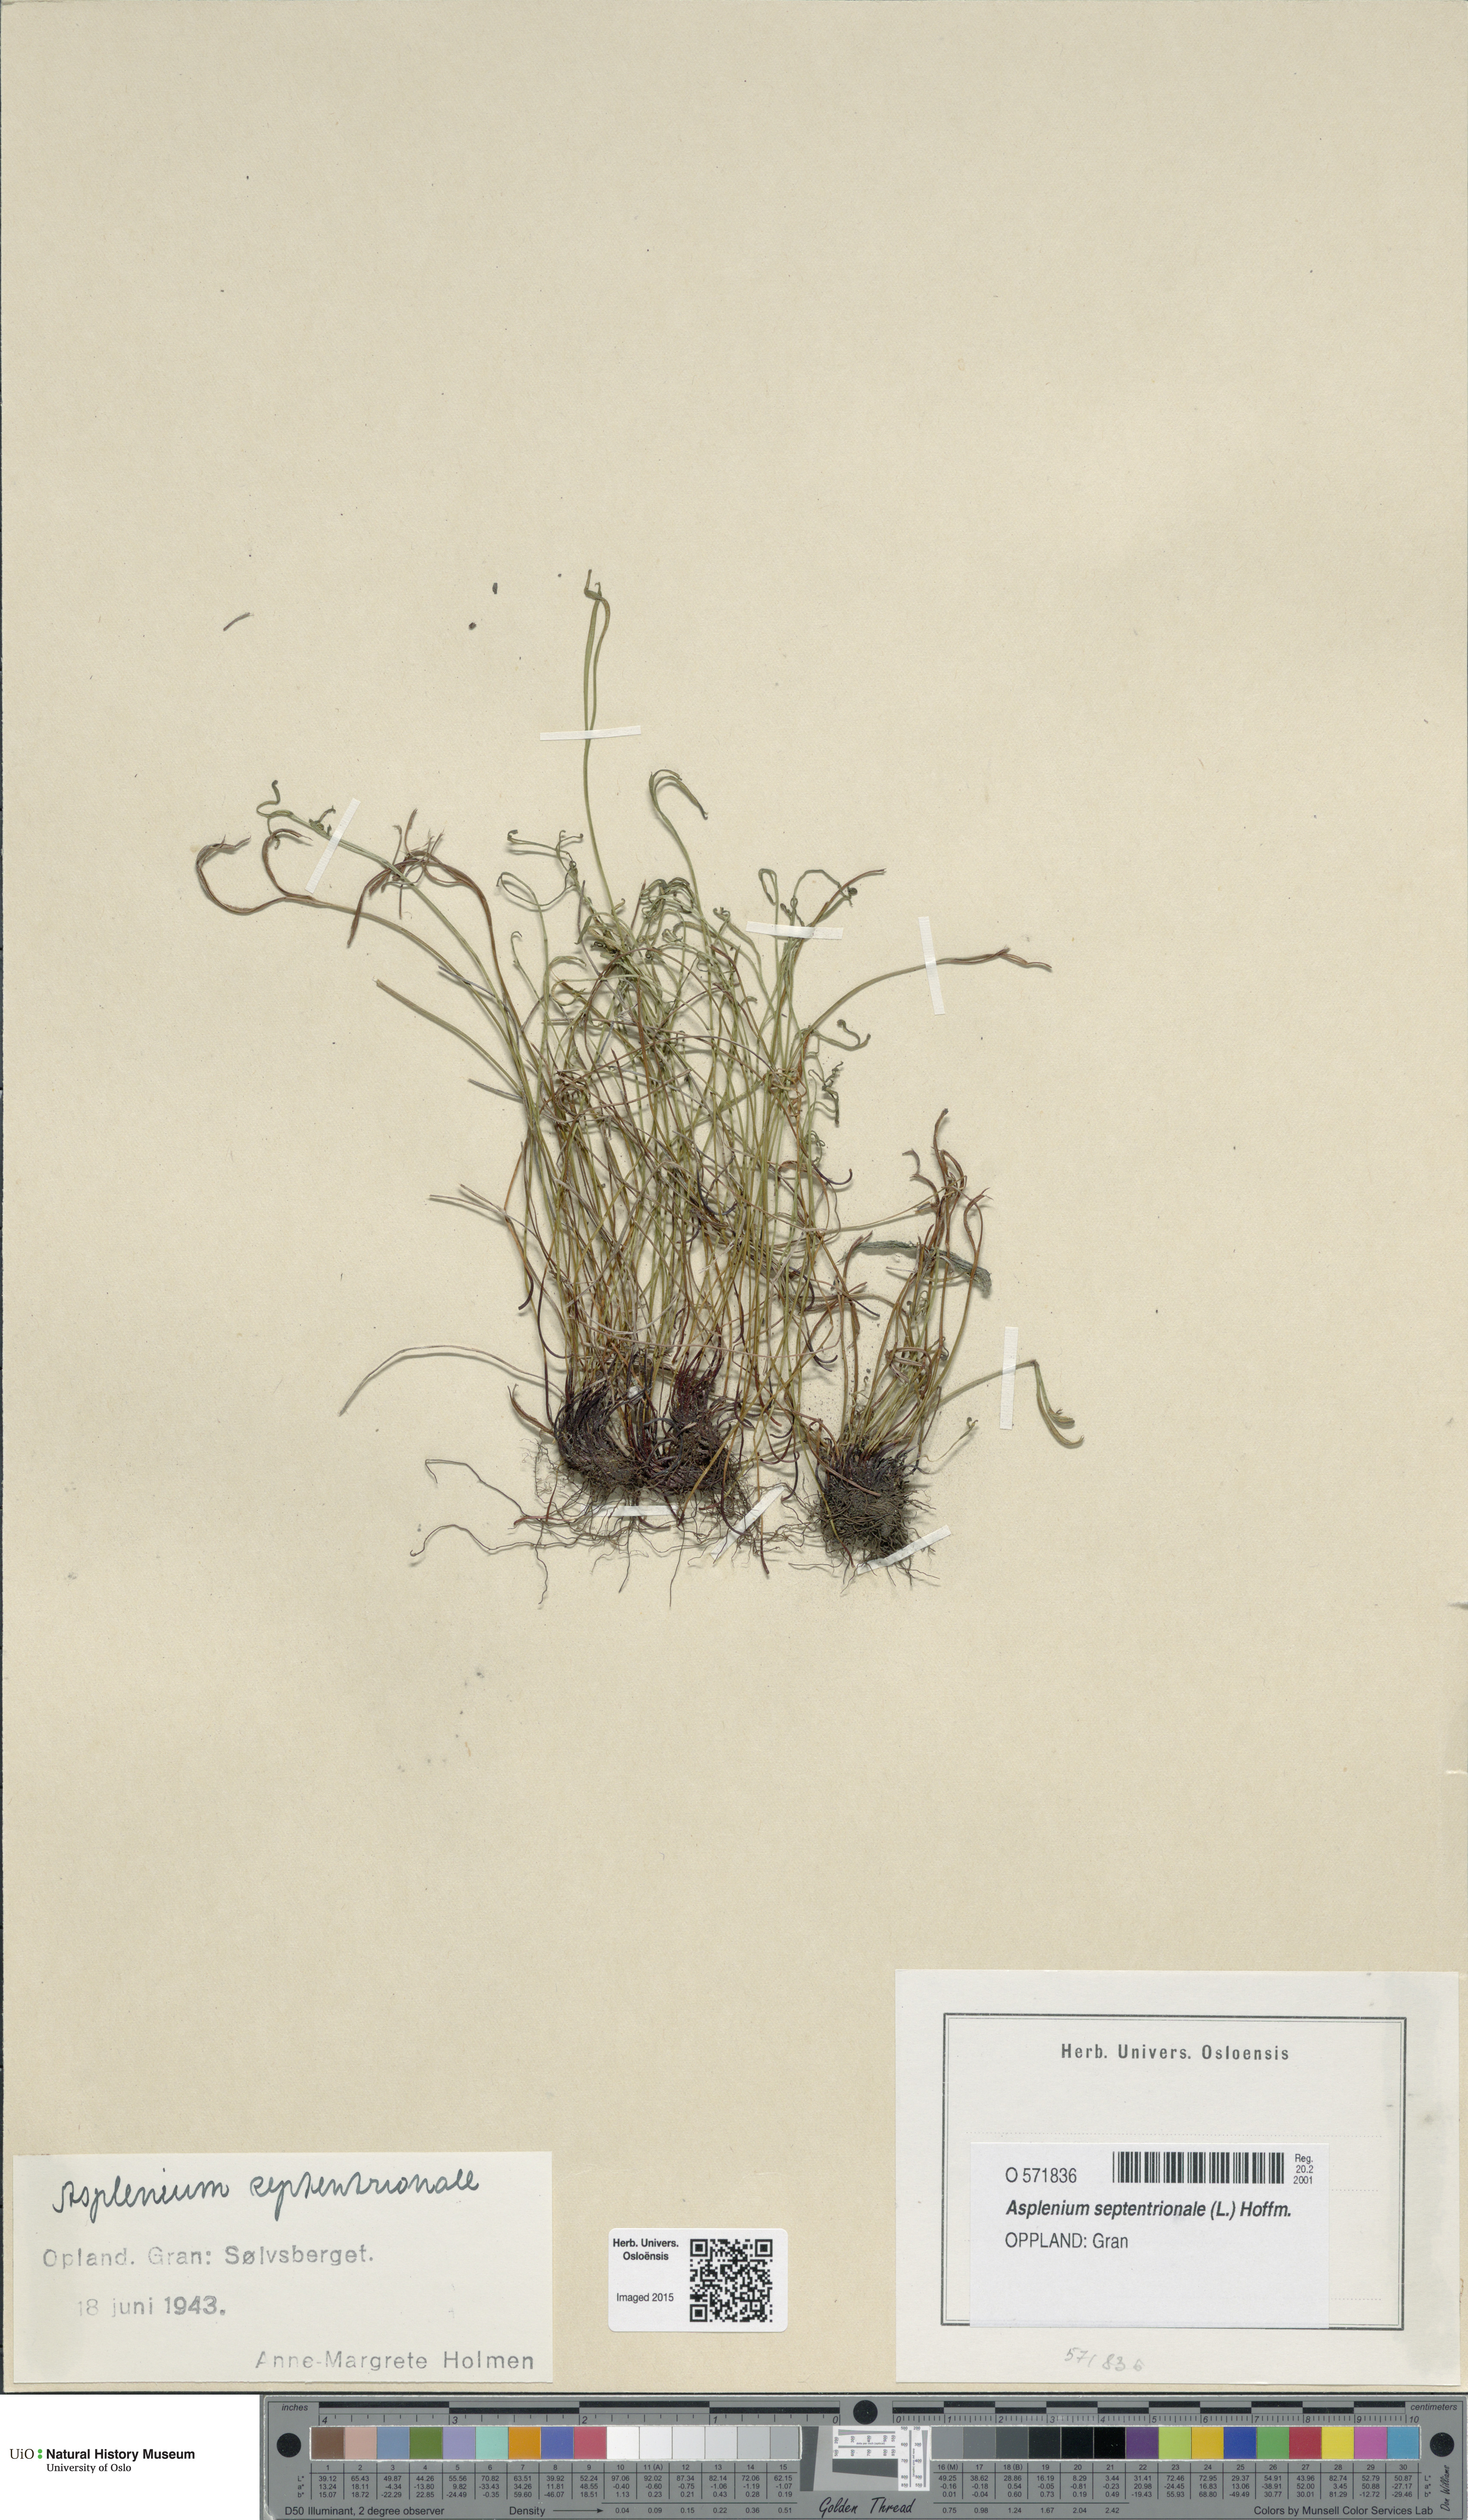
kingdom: Plantae
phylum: Tracheophyta
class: Polypodiopsida
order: Polypodiales
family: Aspleniaceae
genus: Asplenium
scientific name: Asplenium septentrionale
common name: Forked spleenwort
